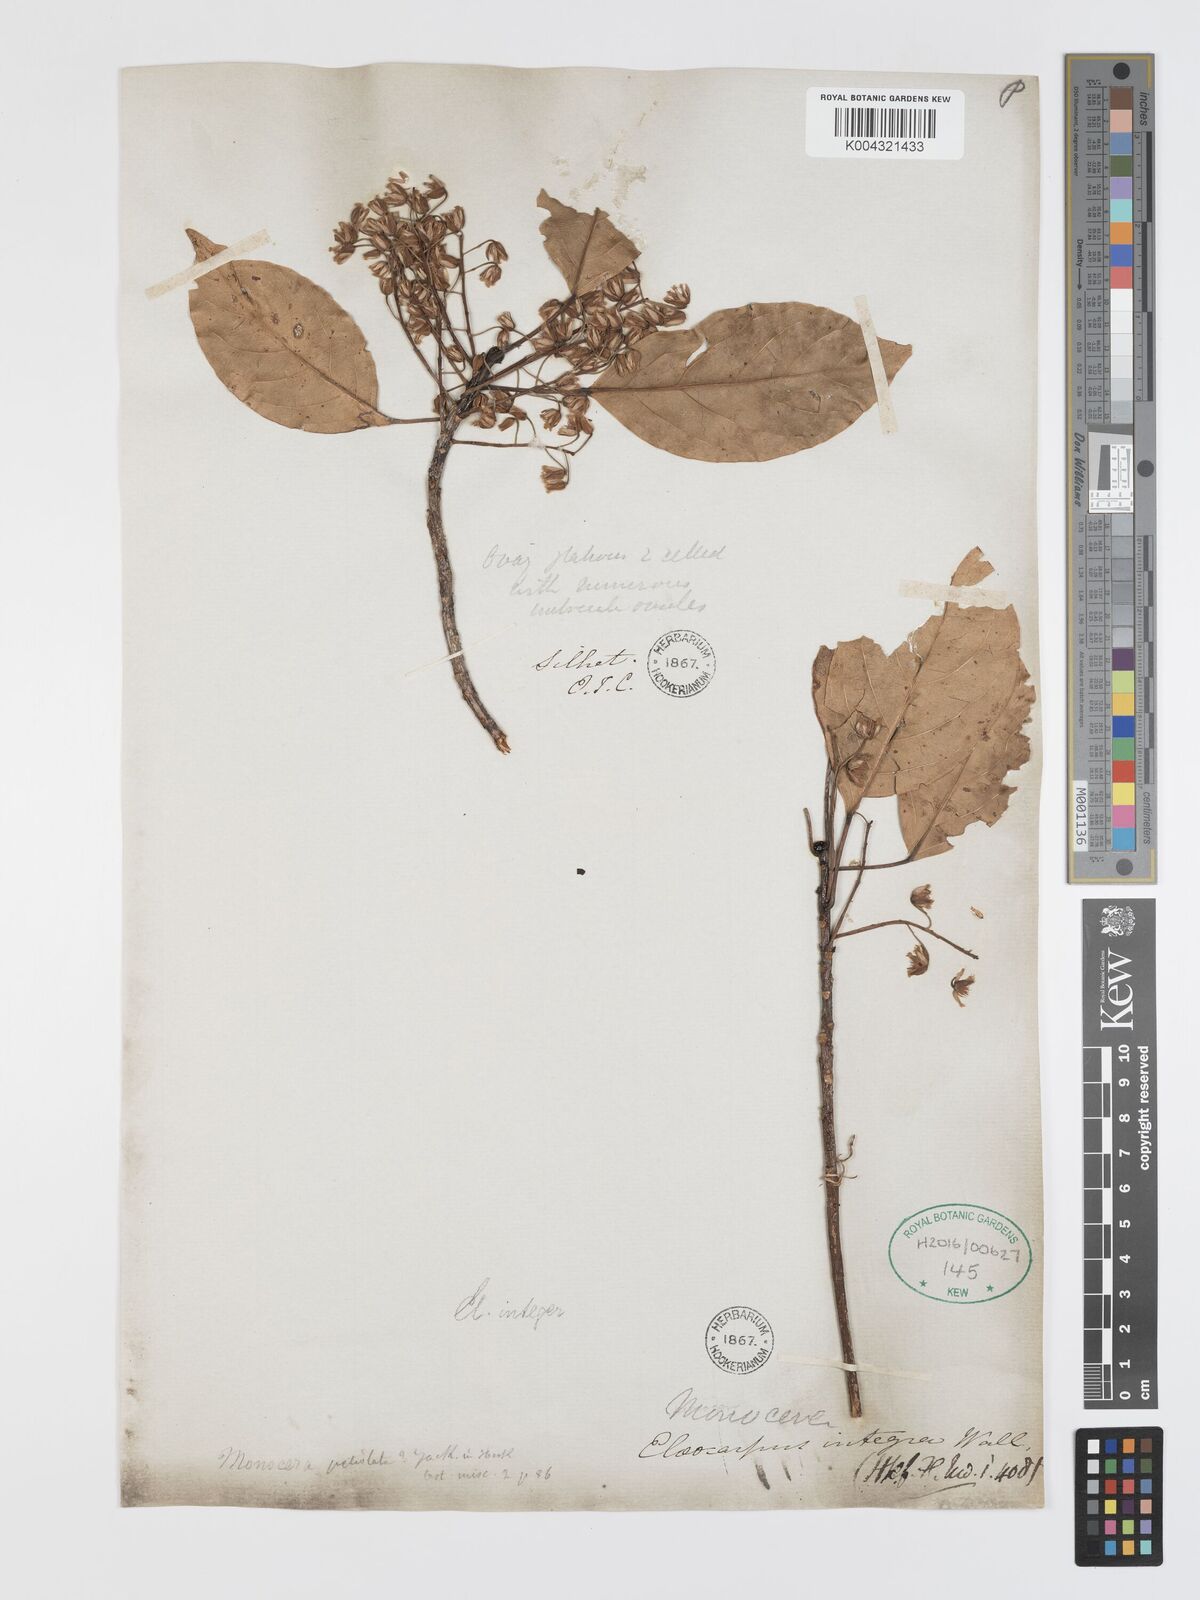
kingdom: Plantae
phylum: Tracheophyta
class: Magnoliopsida
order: Oxalidales
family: Elaeocarpaceae
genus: Elaeocarpus
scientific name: Elaeocarpus petiolatus
